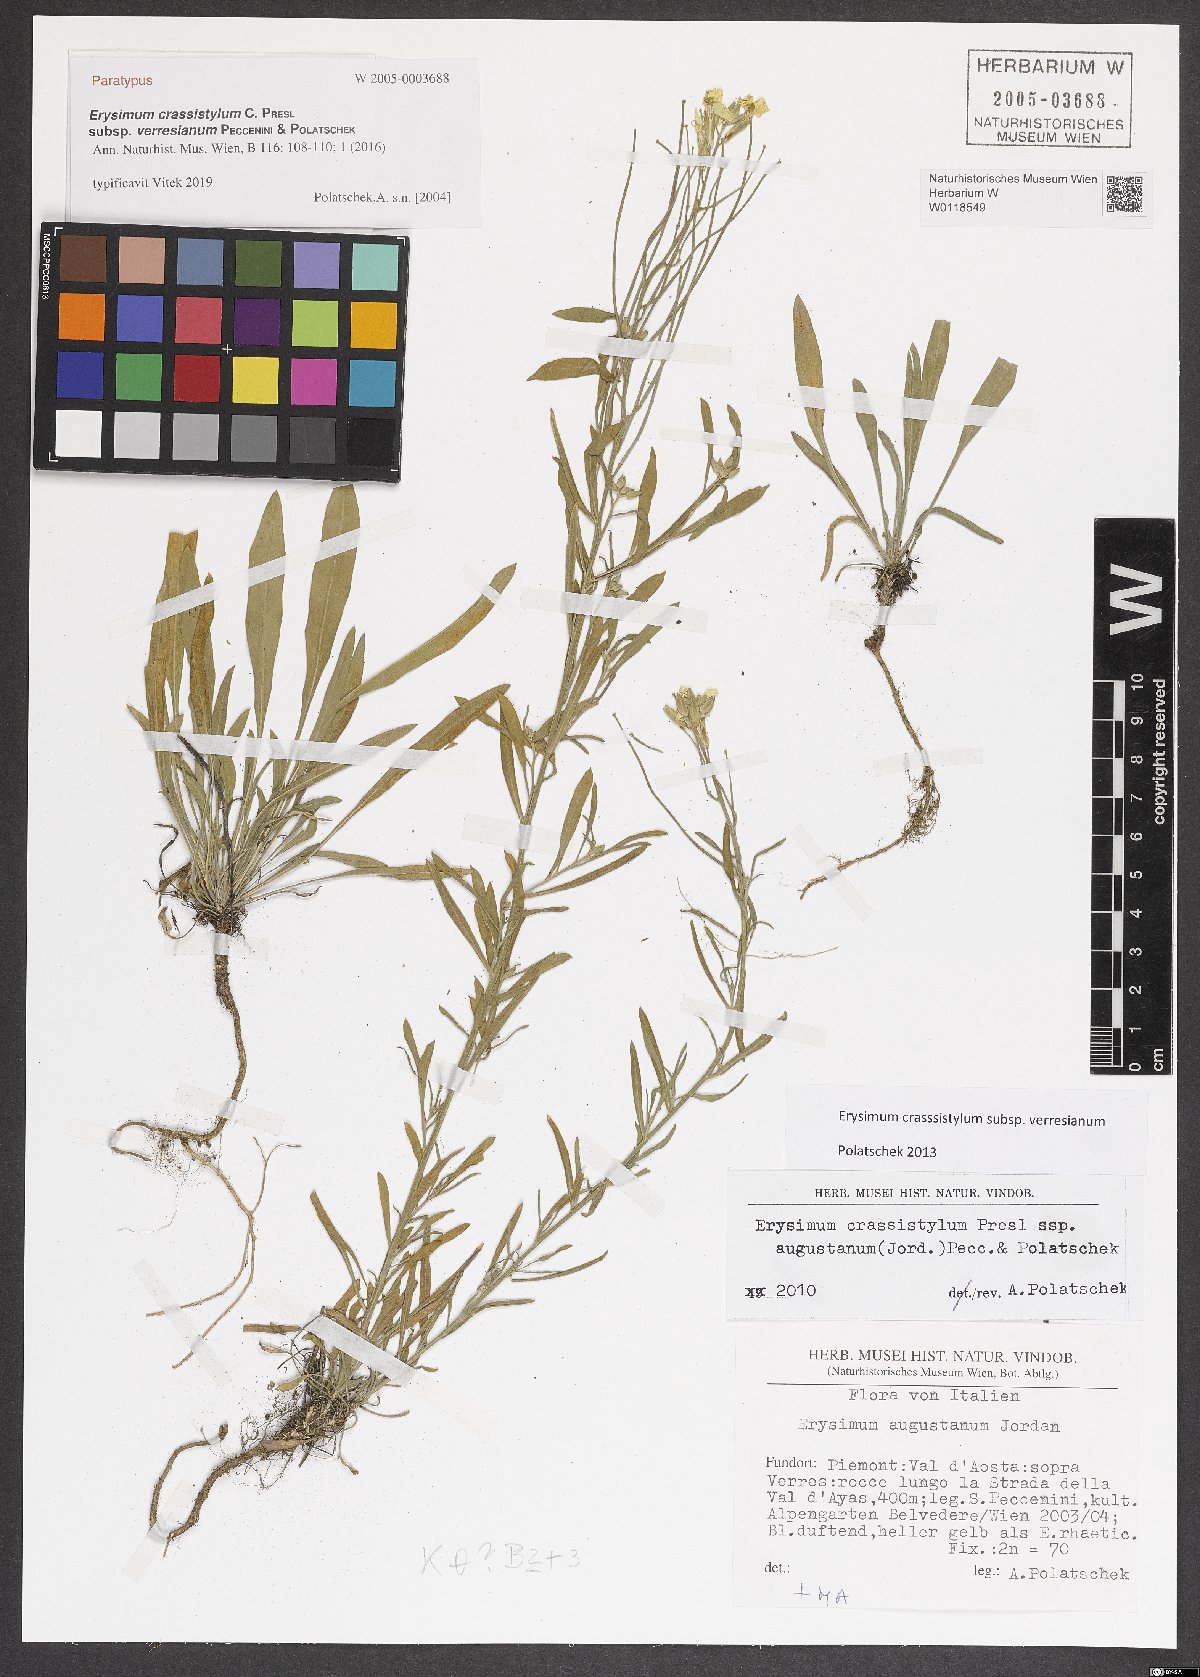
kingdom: Plantae
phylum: Tracheophyta
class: Magnoliopsida
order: Brassicales
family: Brassicaceae
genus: Erysimum
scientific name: Erysimum crassistylum
